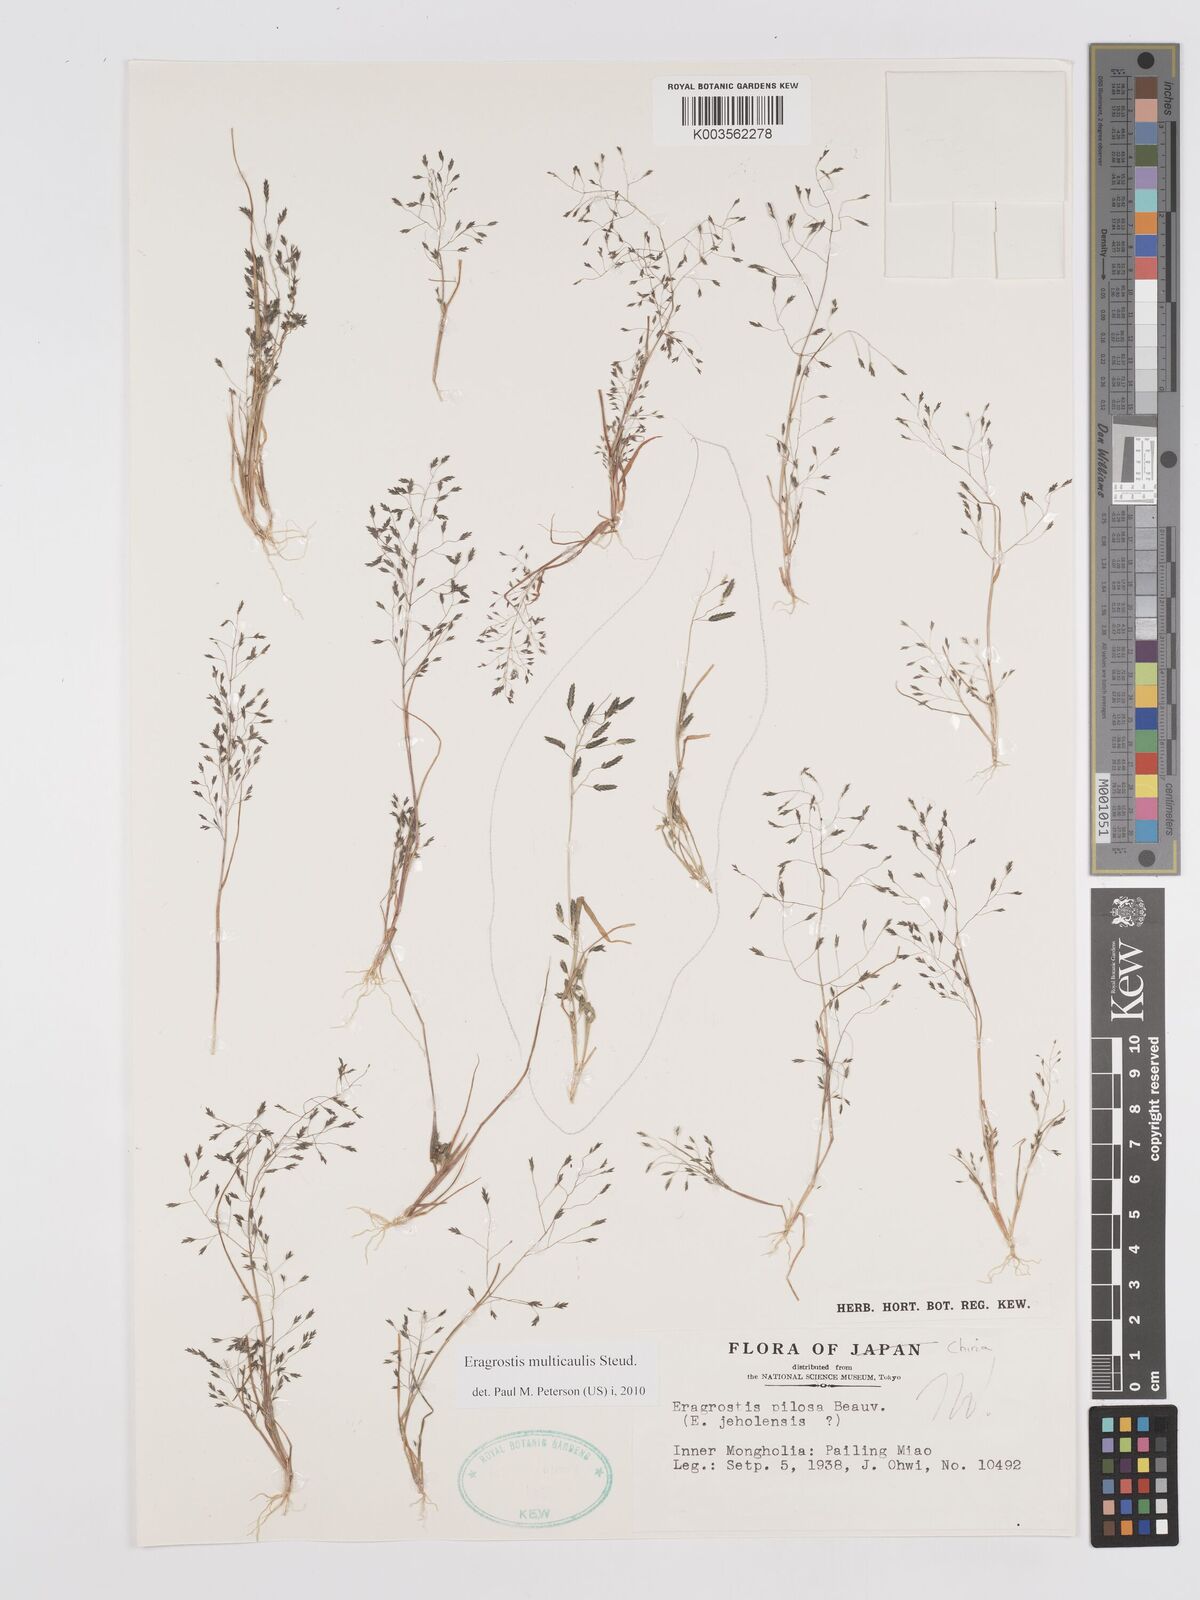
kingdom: Plantae
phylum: Tracheophyta
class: Liliopsida
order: Poales
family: Poaceae
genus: Eragrostis
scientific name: Eragrostis pilosa
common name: Indian lovegrass
